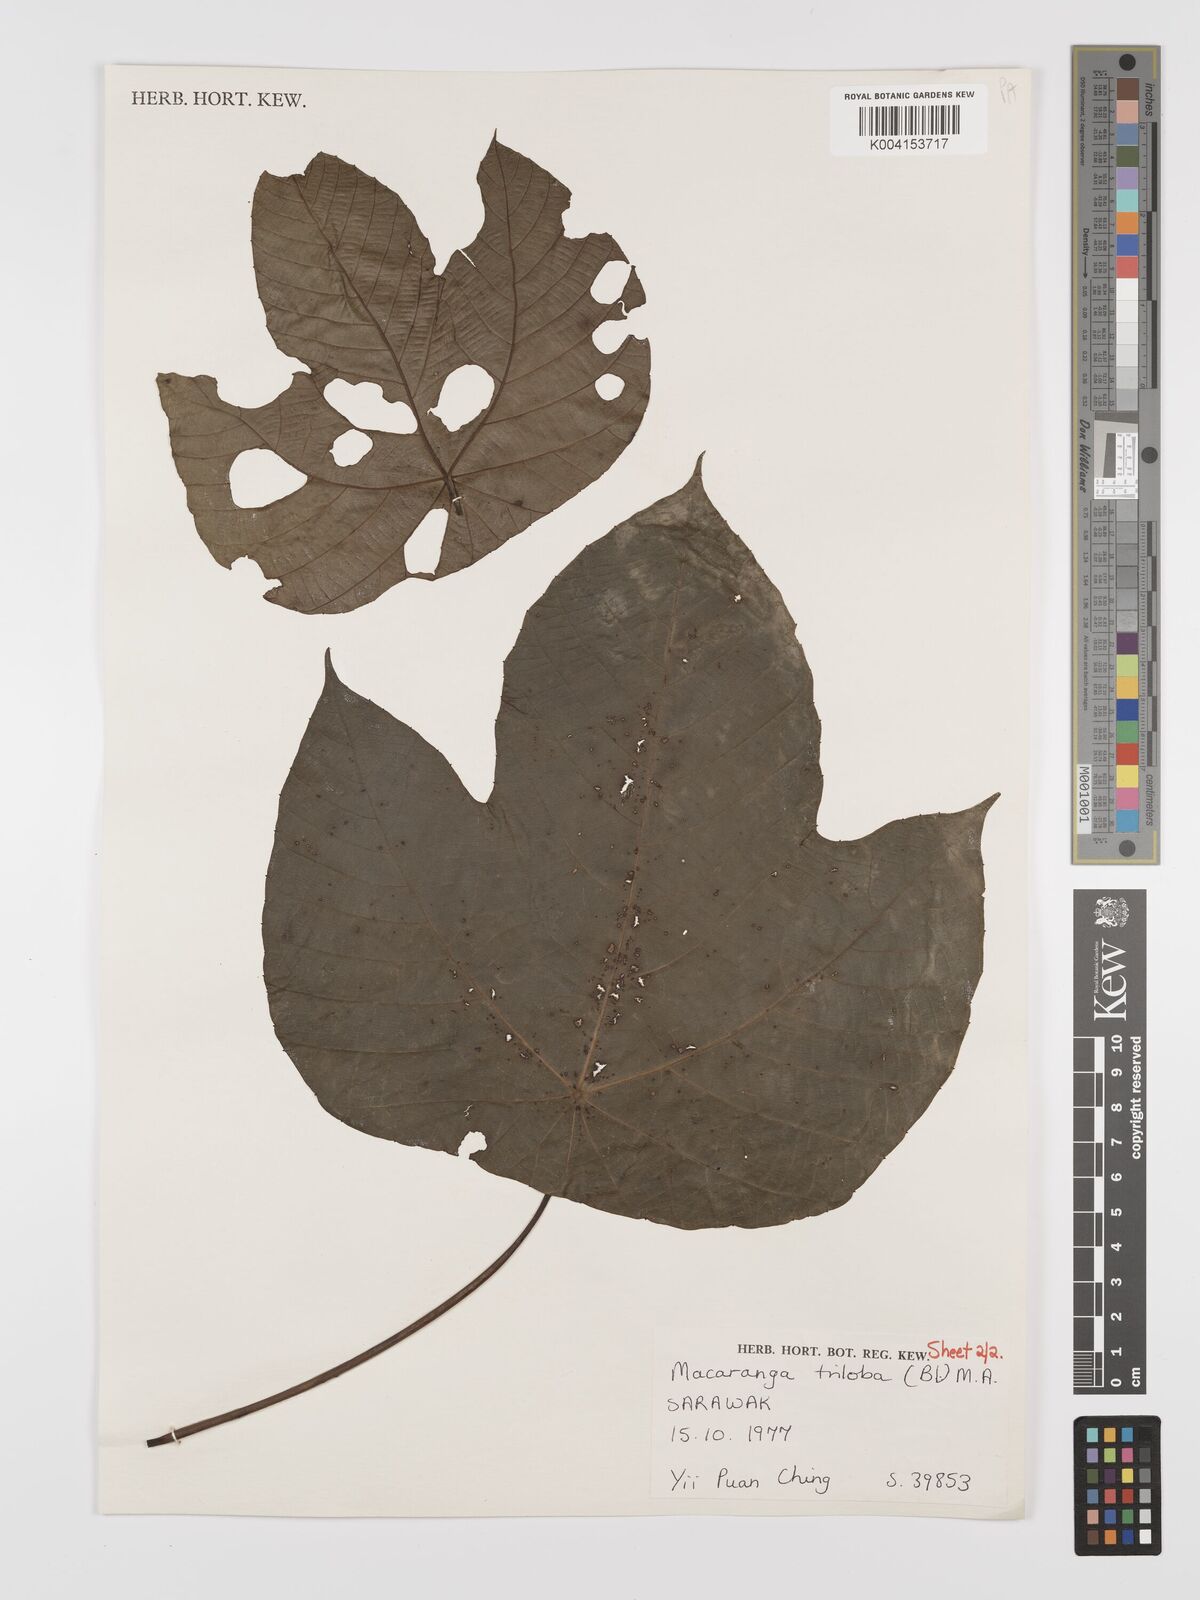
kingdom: Plantae
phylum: Tracheophyta
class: Magnoliopsida
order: Malpighiales
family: Euphorbiaceae
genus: Macaranga
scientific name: Macaranga triloba
